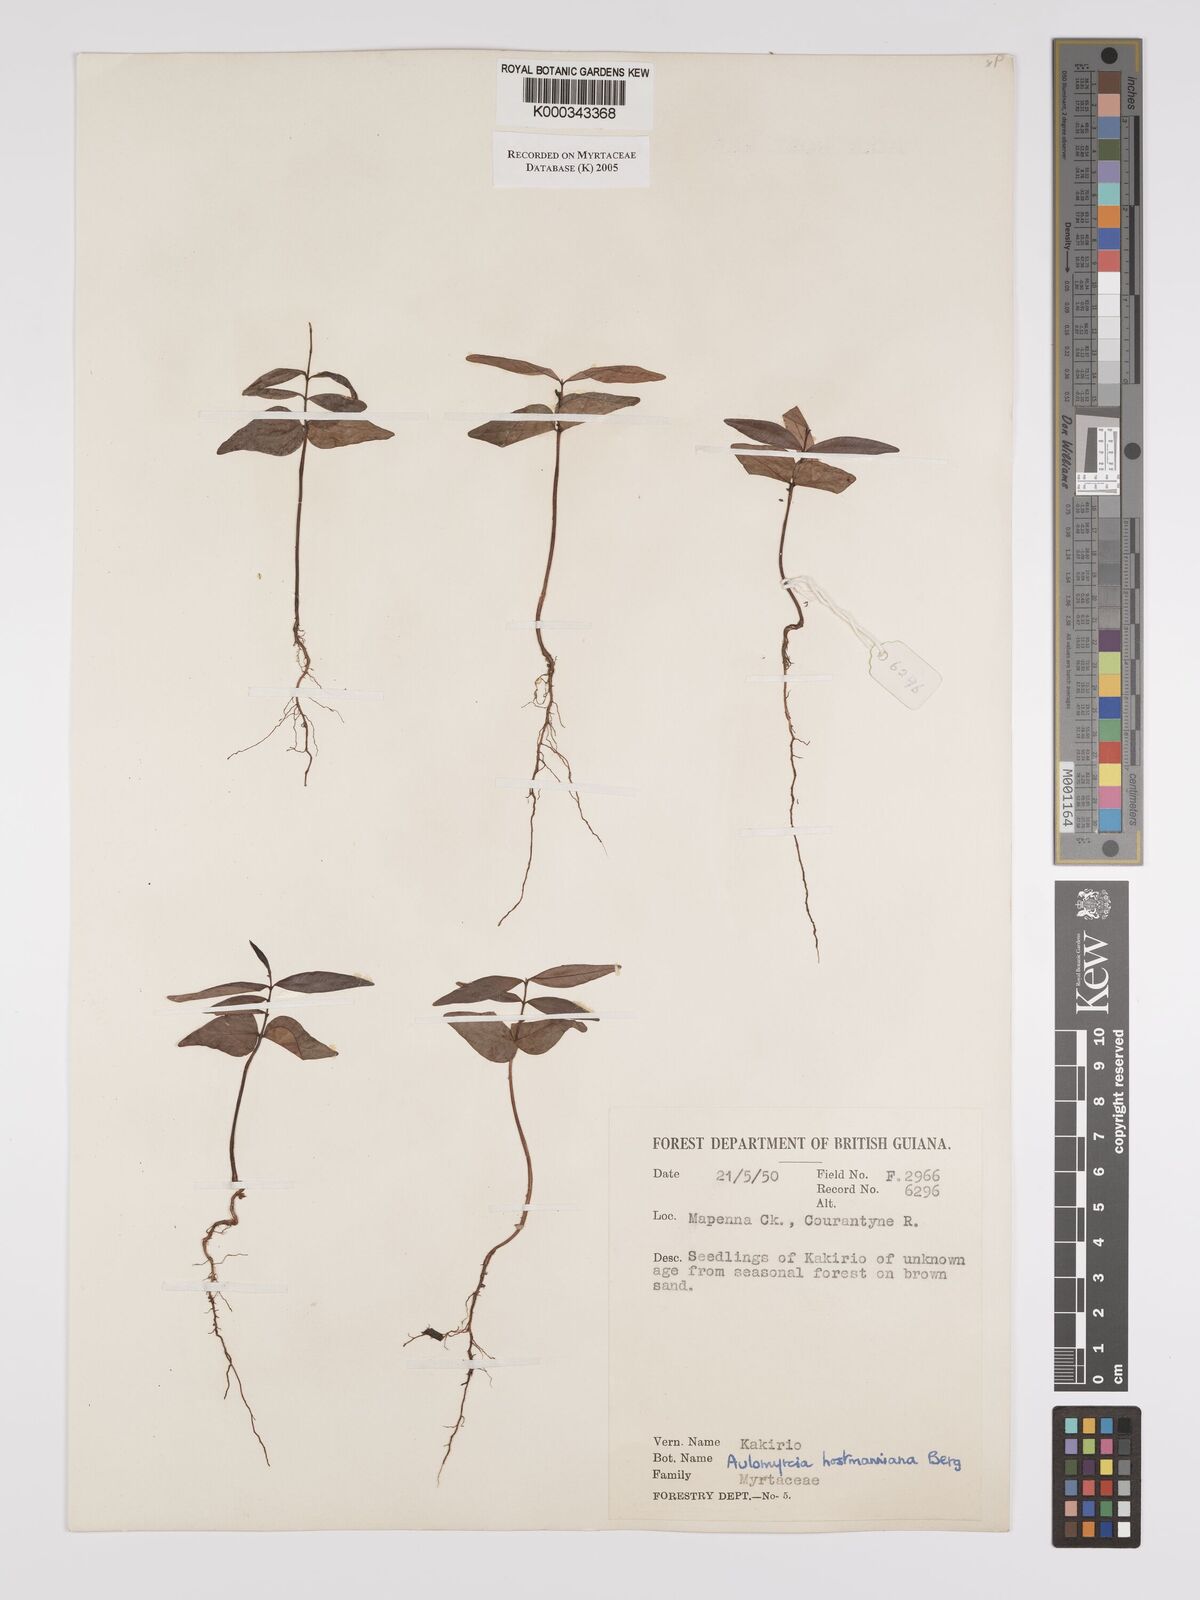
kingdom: Plantae
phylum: Tracheophyta
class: Magnoliopsida
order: Myrtales
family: Myrtaceae
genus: Myrcia
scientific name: Myrcia amazonica
